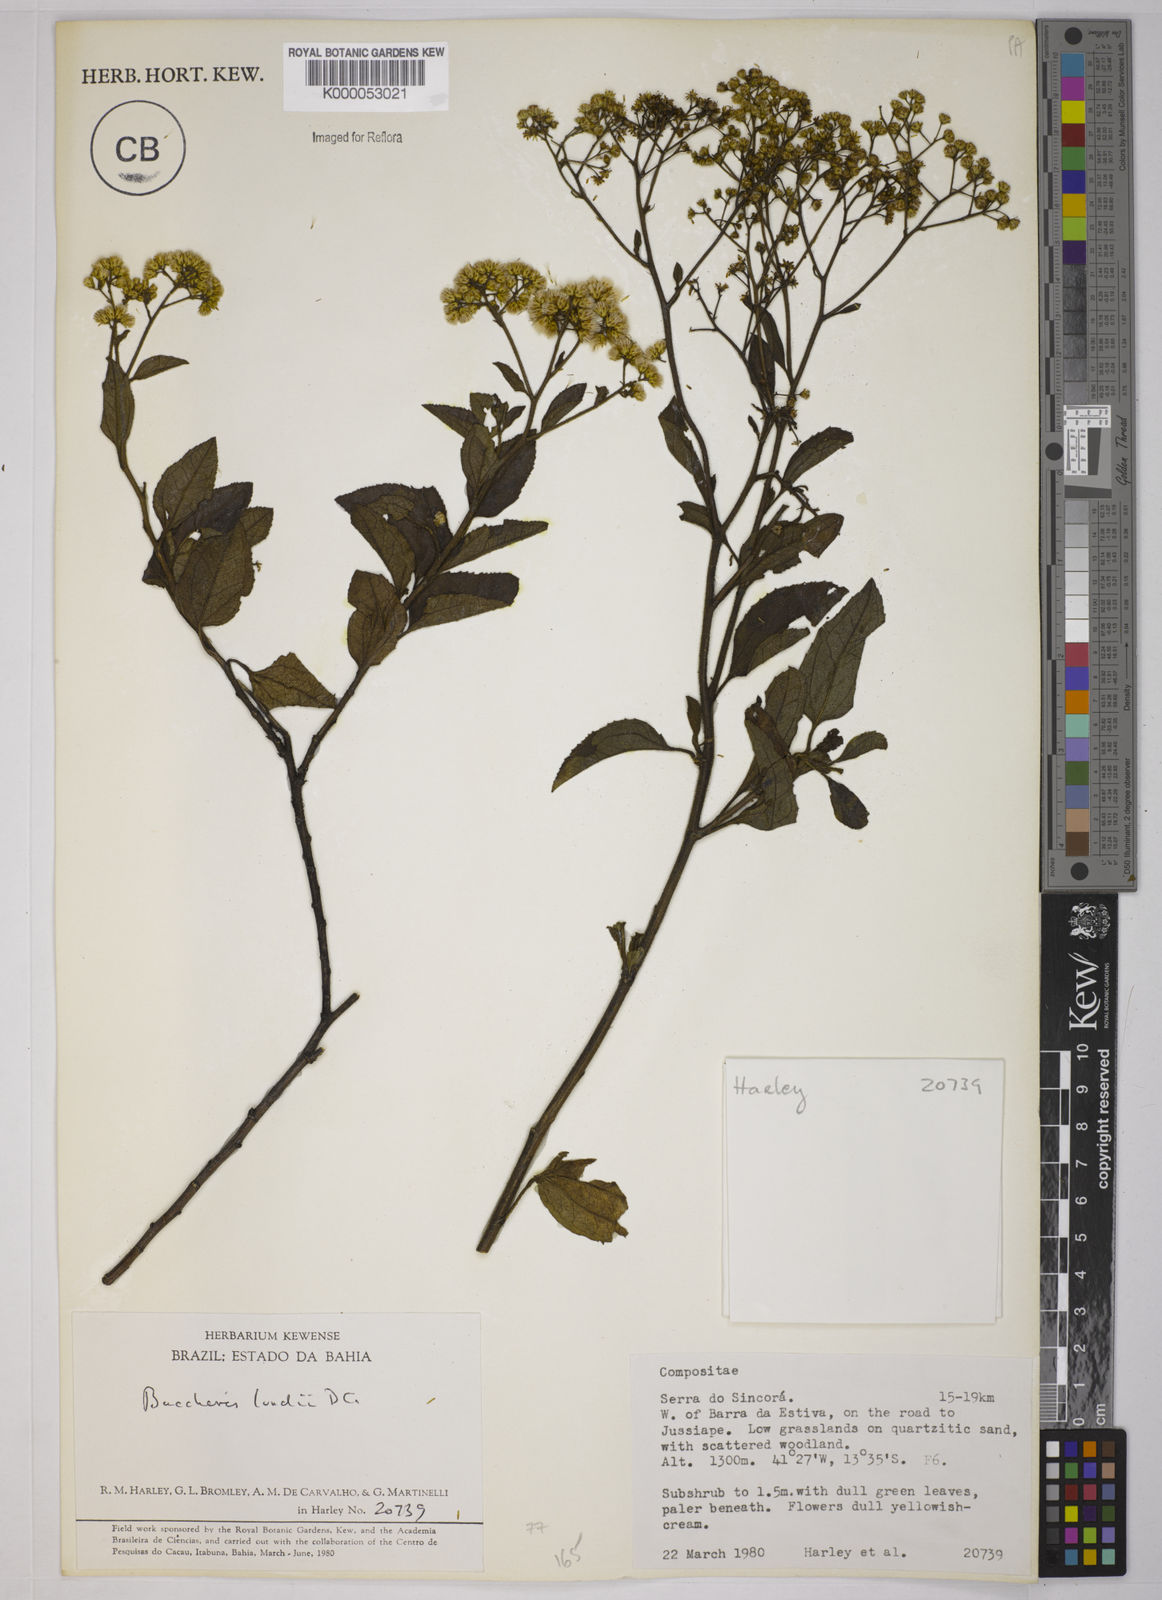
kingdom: Plantae
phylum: Tracheophyta
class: Magnoliopsida
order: Asterales
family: Asteraceae
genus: Baccharis
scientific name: Baccharis serrulata
